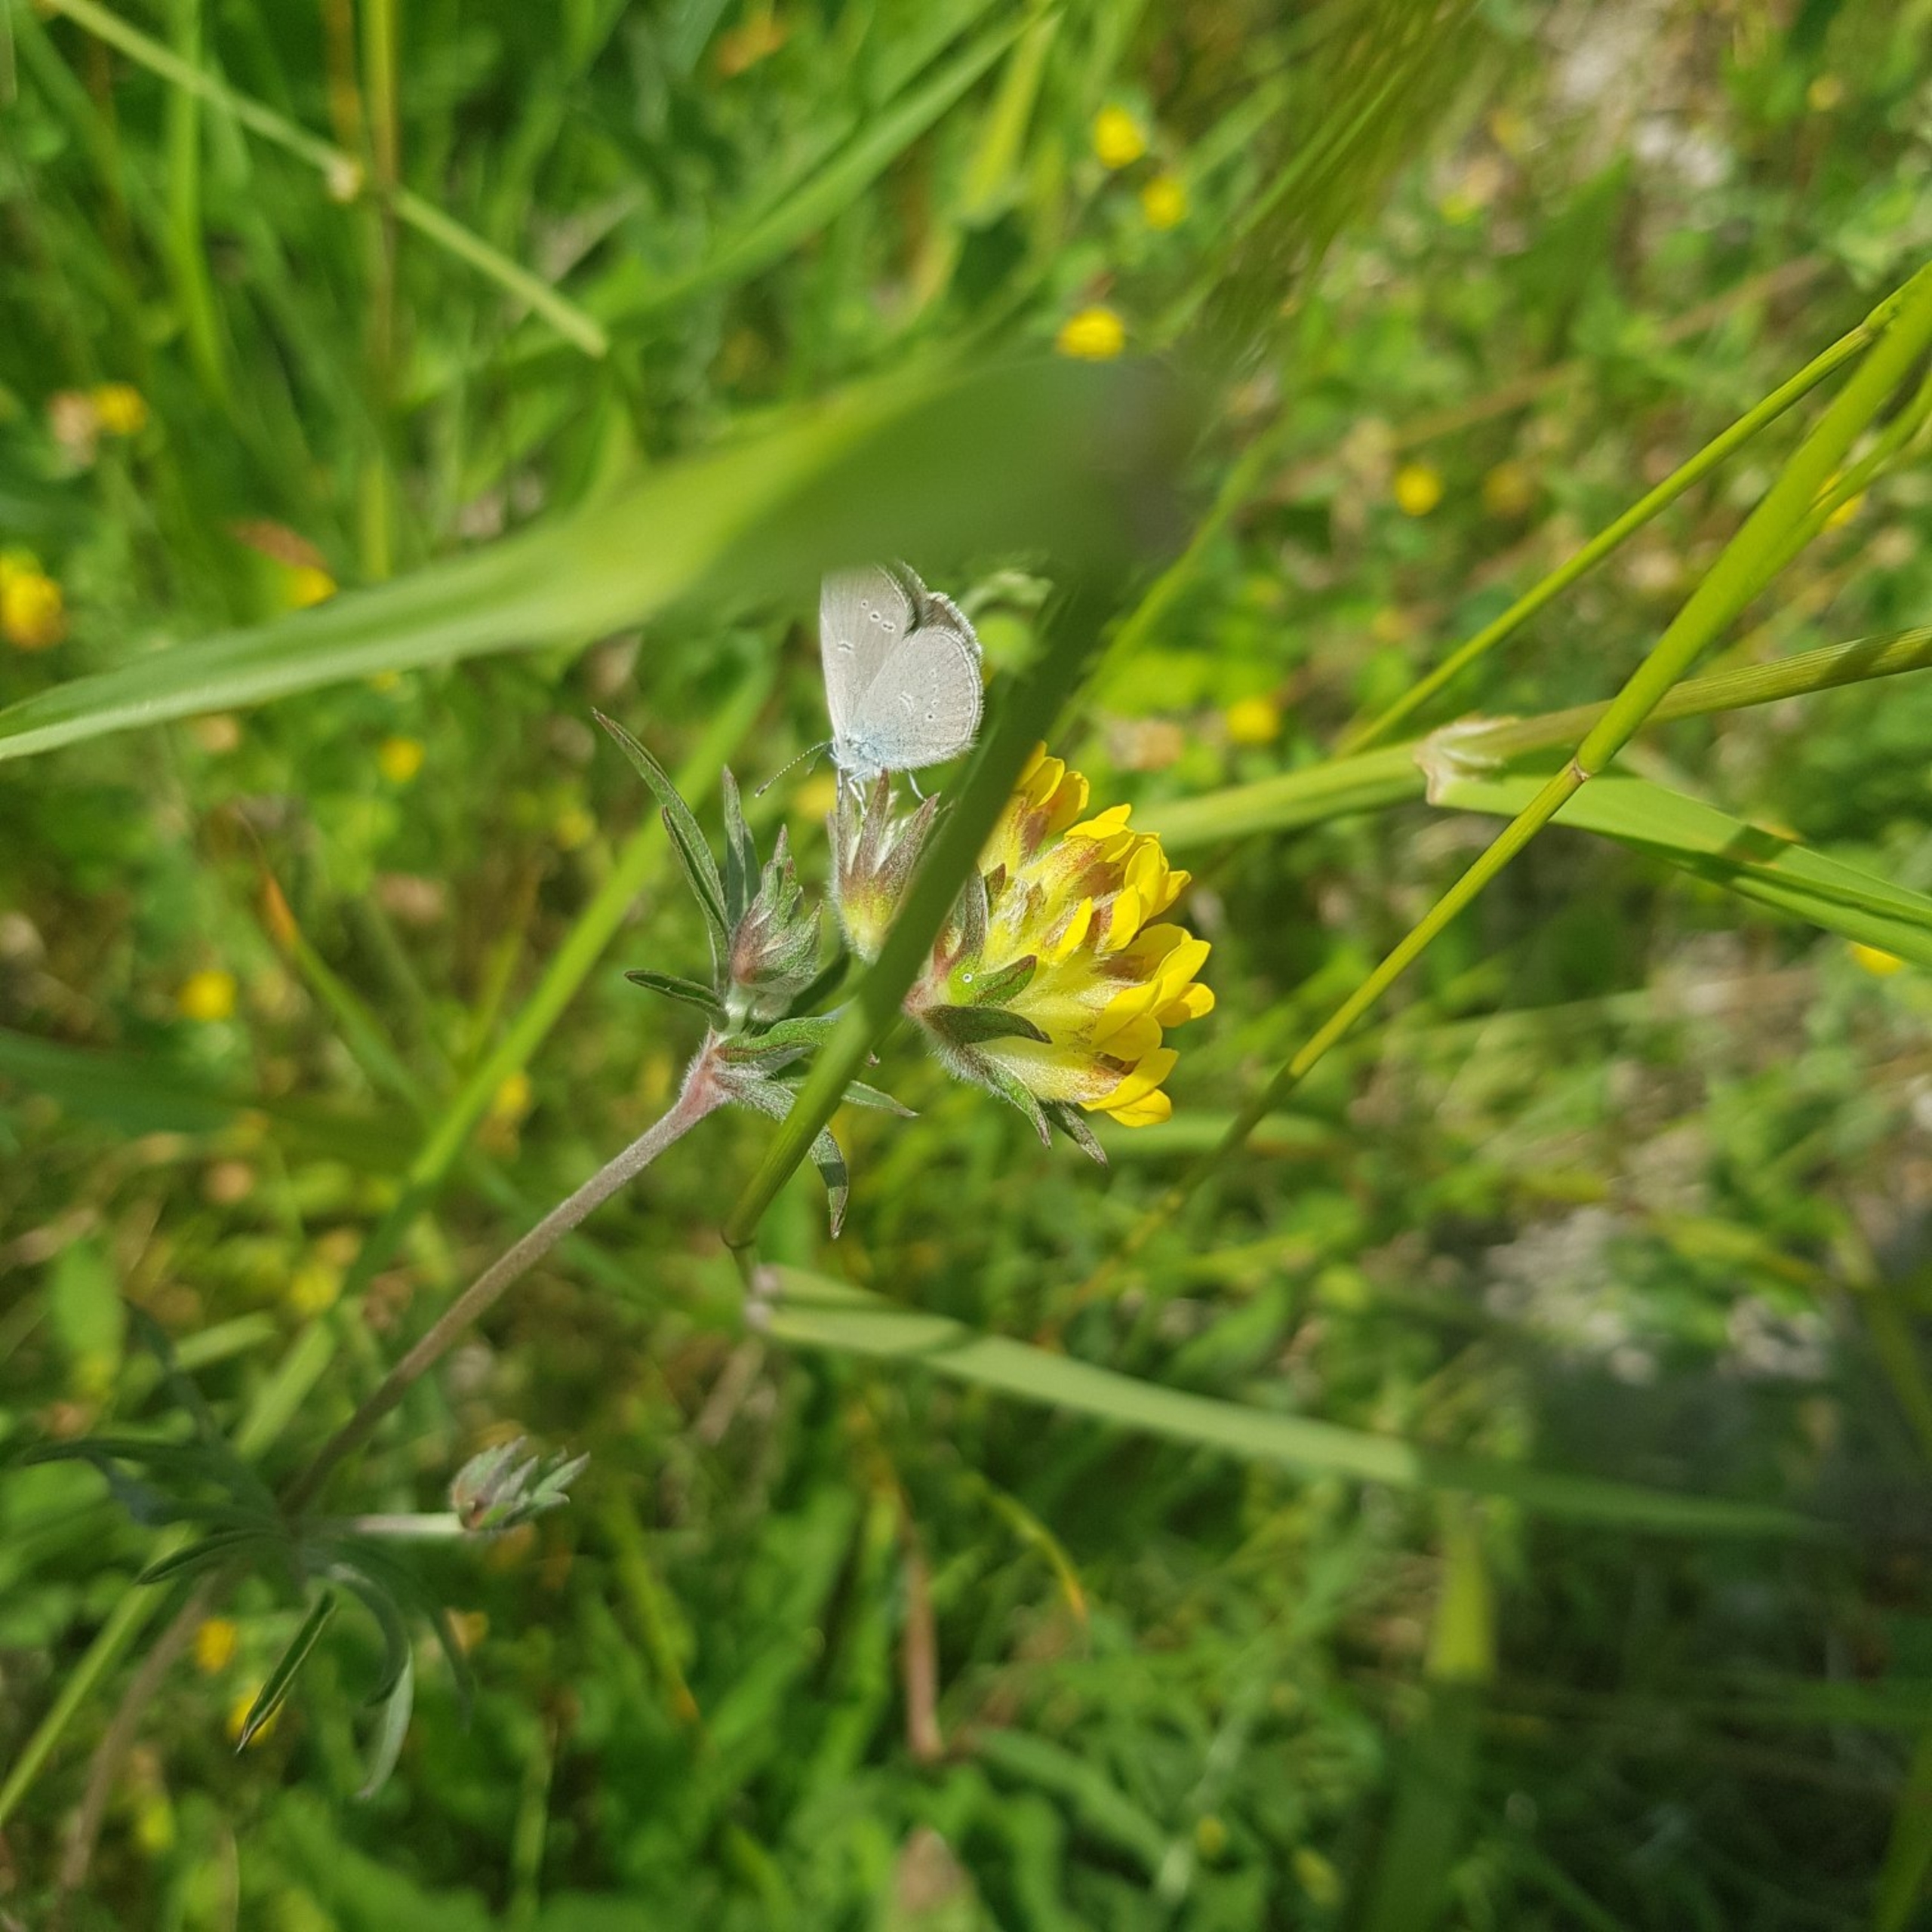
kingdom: Animalia
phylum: Arthropoda
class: Insecta
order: Lepidoptera
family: Lycaenidae
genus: Cupido
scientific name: Cupido minimus
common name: Dværgblåfugl
